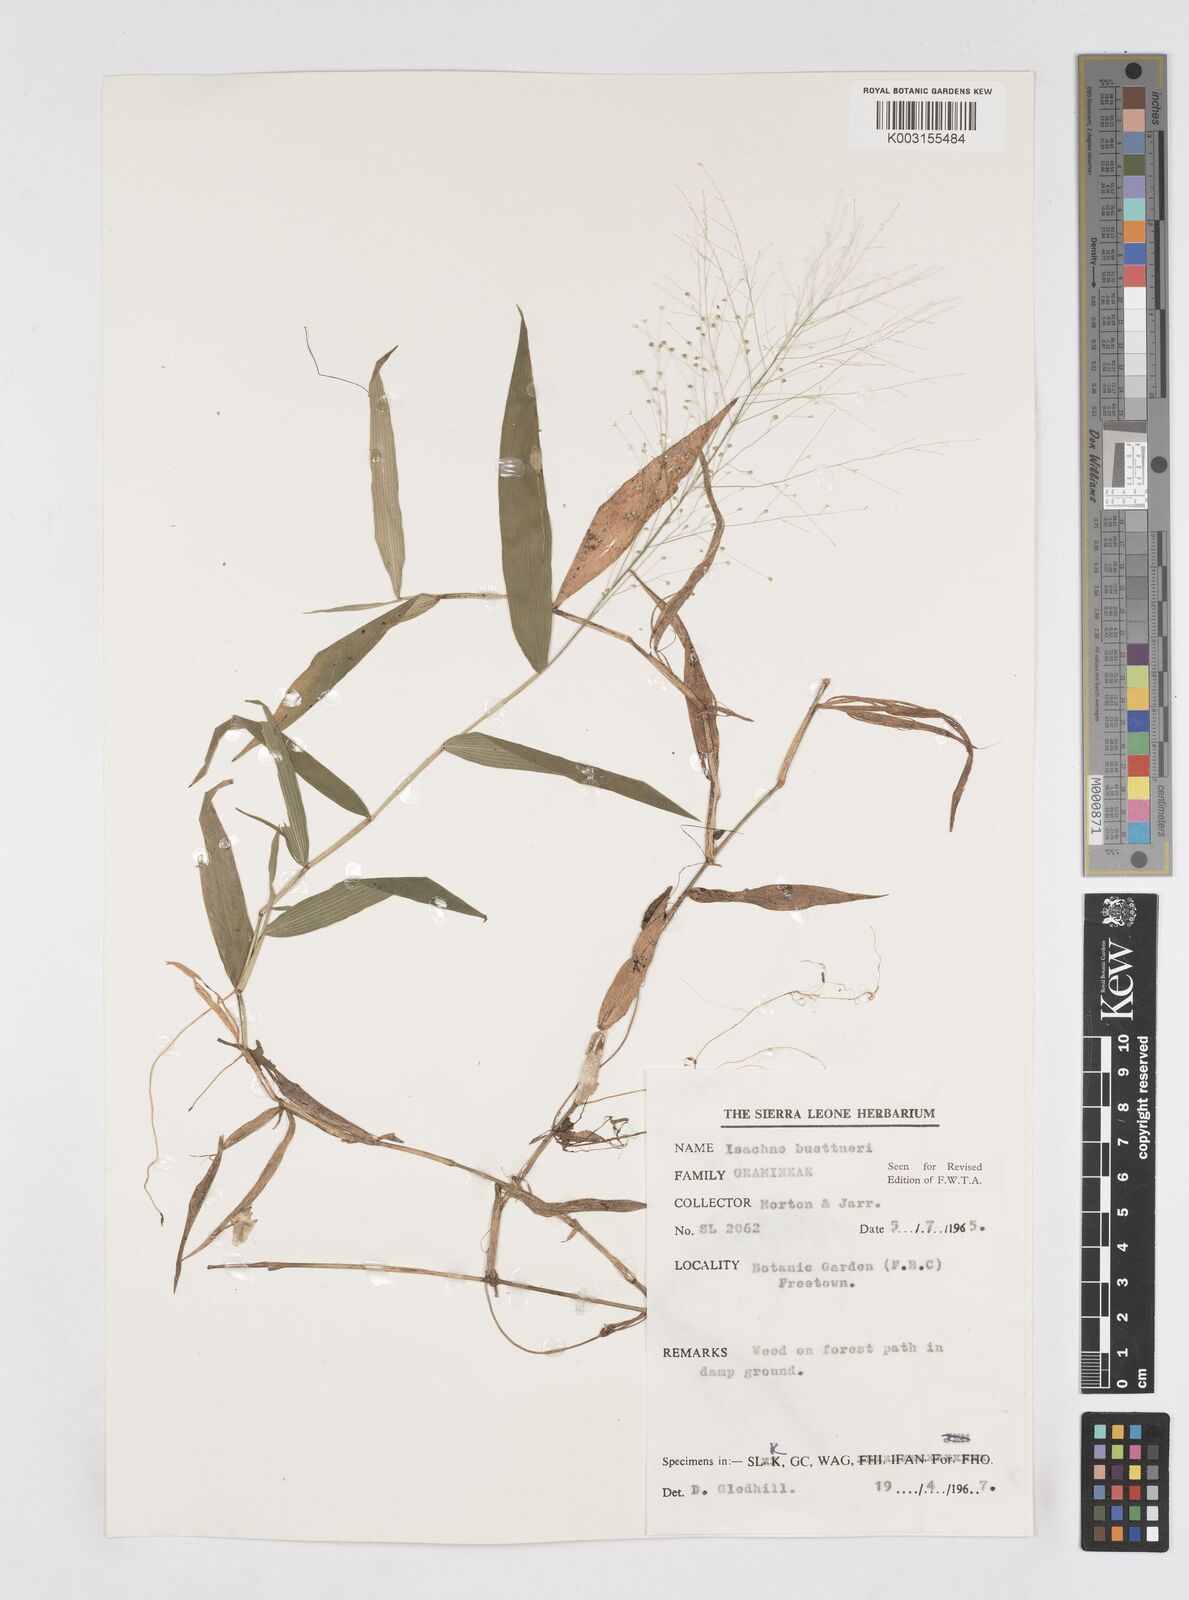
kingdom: Plantae
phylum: Tracheophyta
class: Liliopsida
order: Poales
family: Poaceae
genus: Isachne
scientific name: Isachne albens
